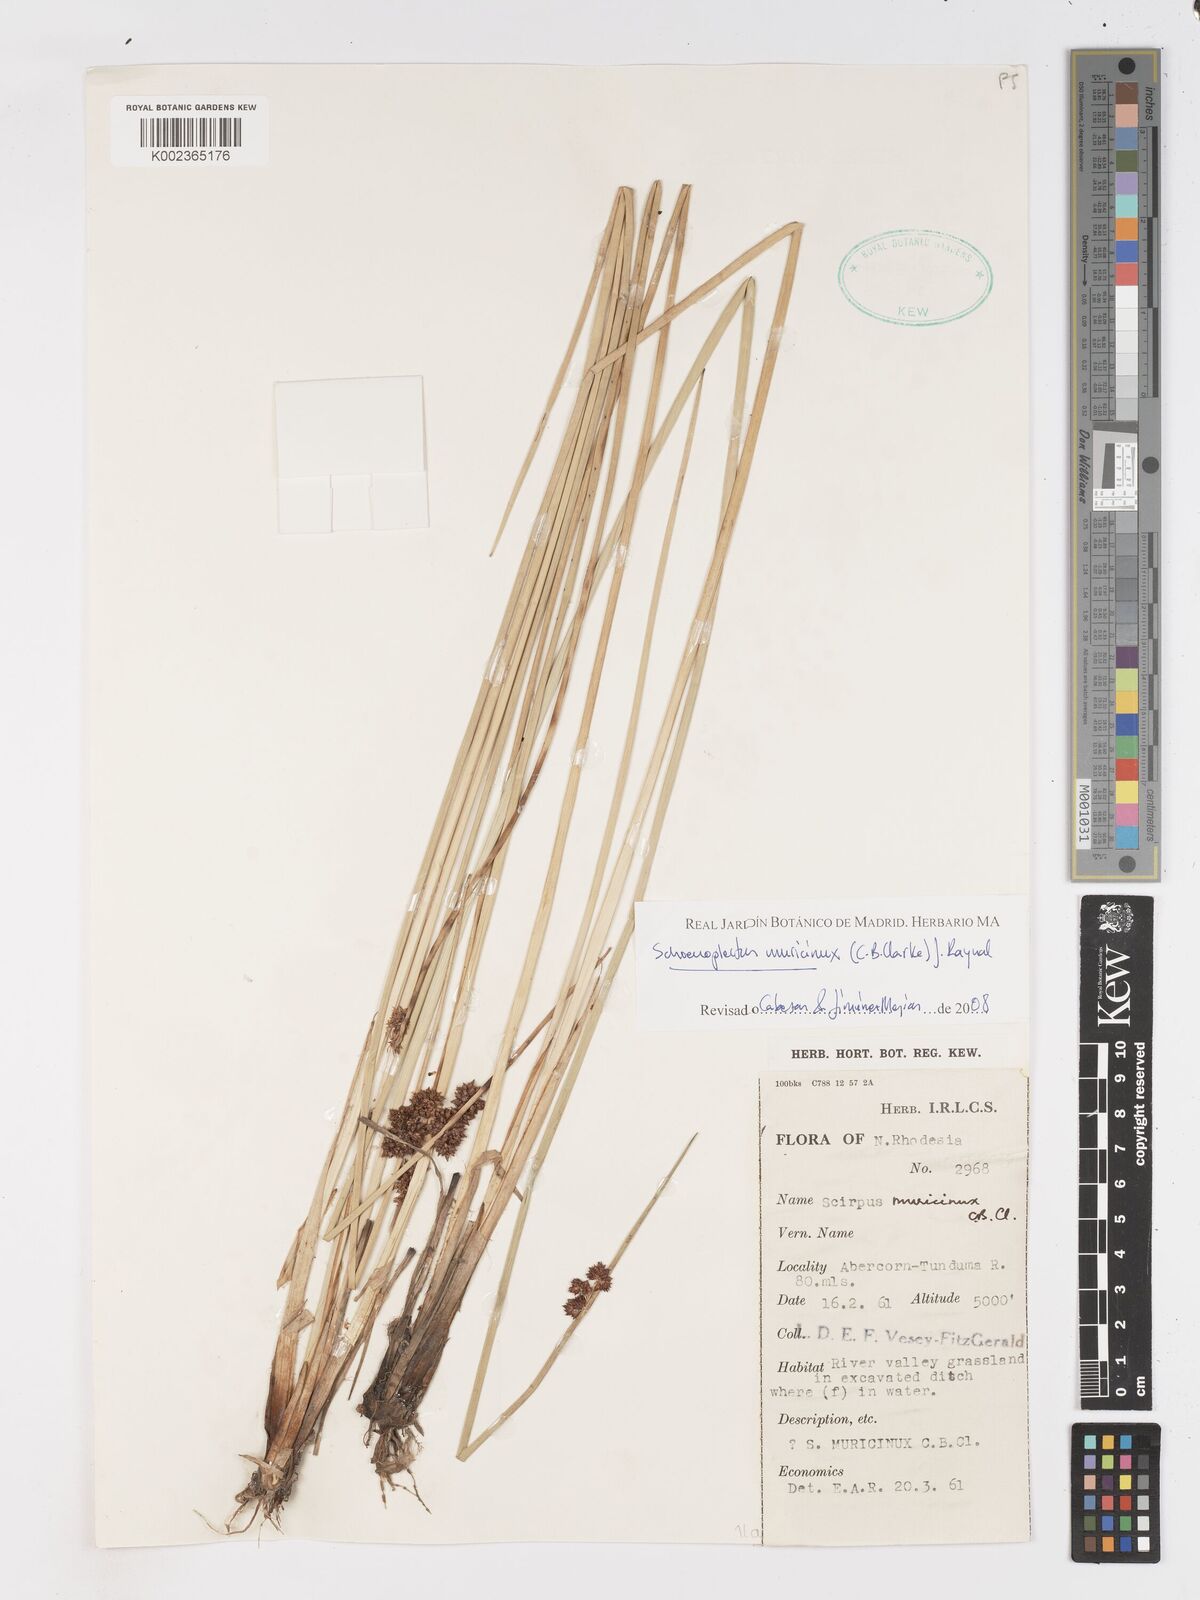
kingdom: Plantae
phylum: Tracheophyta
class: Liliopsida
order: Poales
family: Cyperaceae
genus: Schoenoplectiella
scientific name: Schoenoplectiella muricinux
